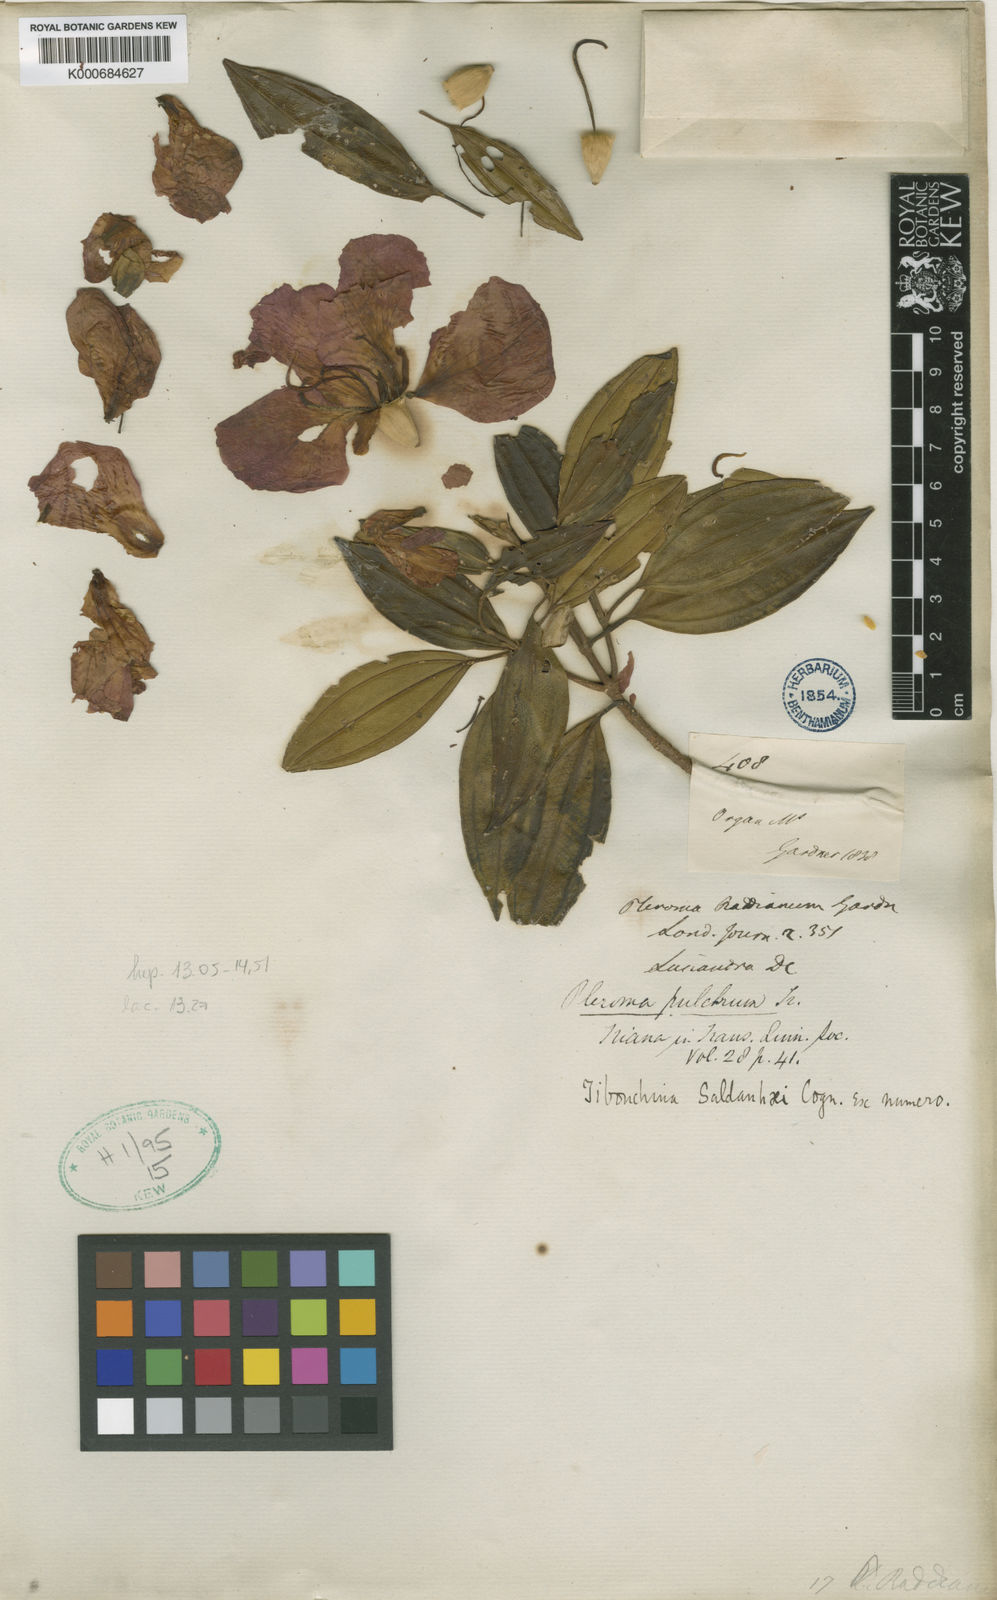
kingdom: Plantae
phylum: Tracheophyta
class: Magnoliopsida
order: Myrtales
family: Melastomataceae
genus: Pleroma
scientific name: Pleroma raddianum
